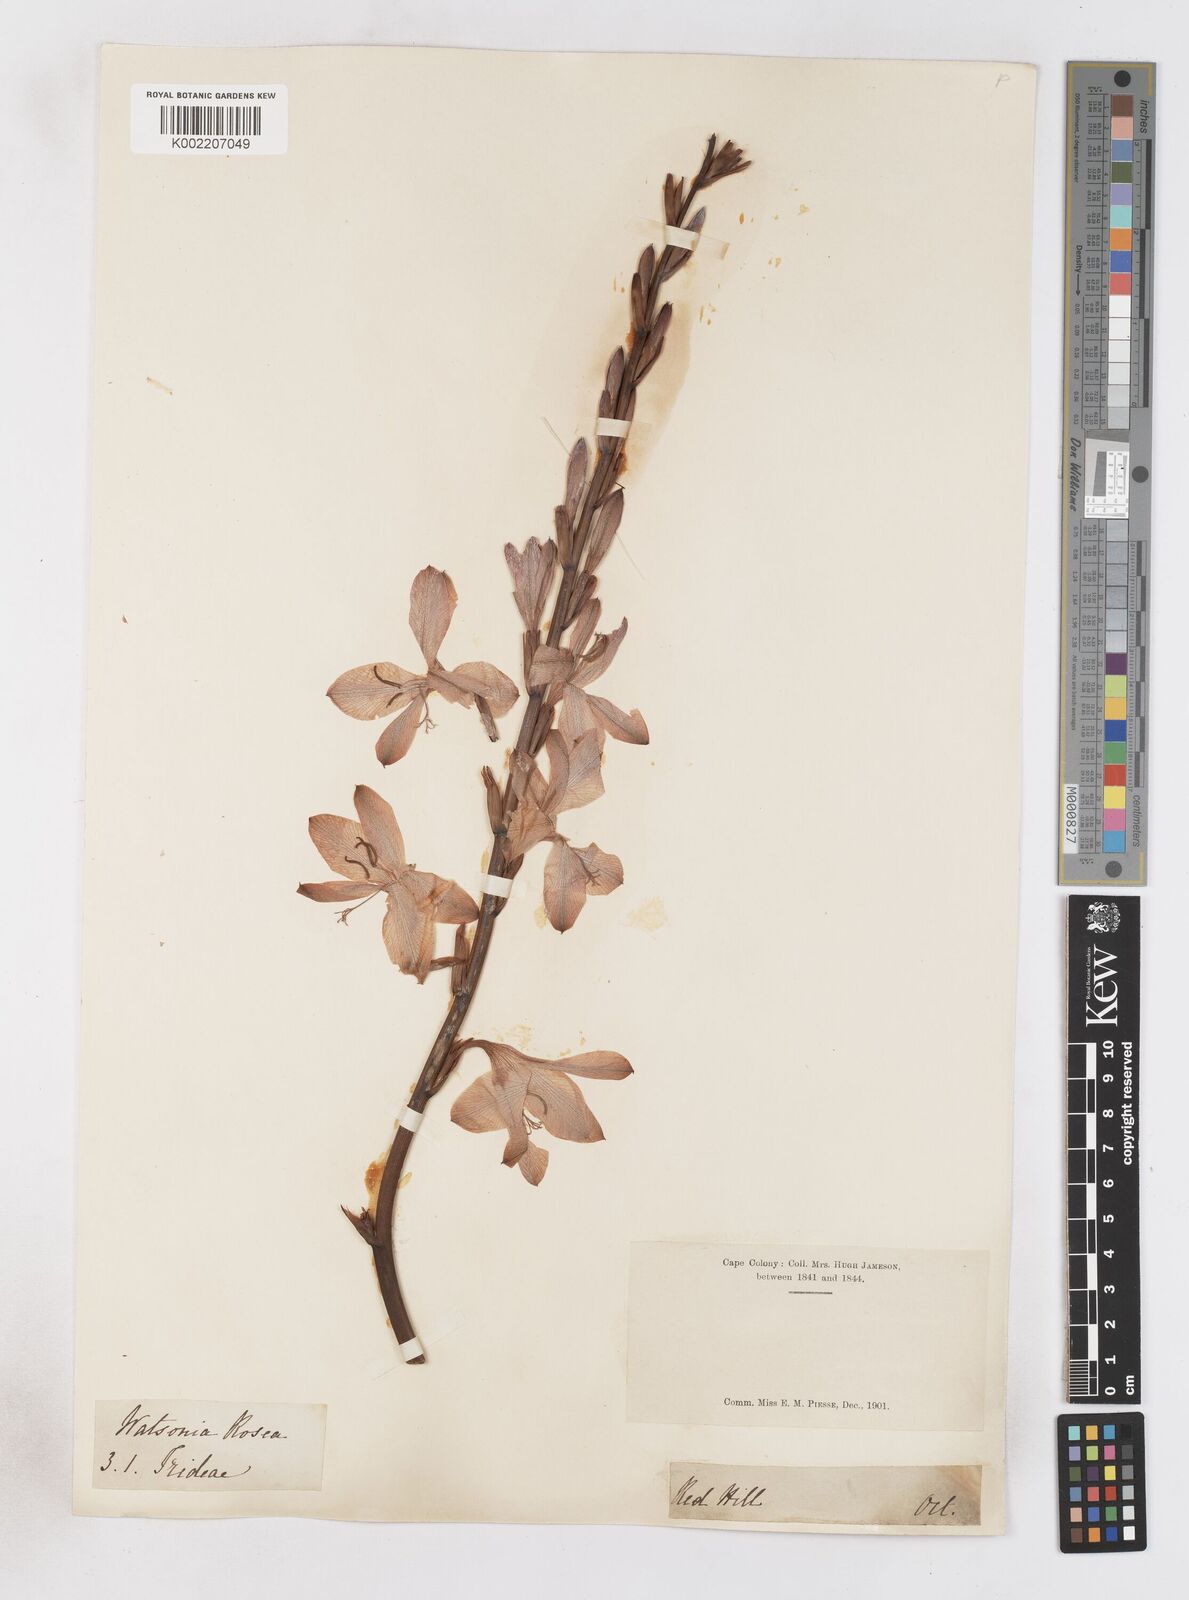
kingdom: Plantae
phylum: Tracheophyta
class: Liliopsida
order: Asparagales
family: Iridaceae
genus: Watsonia
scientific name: Watsonia borbonica
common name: Bugle-lily
